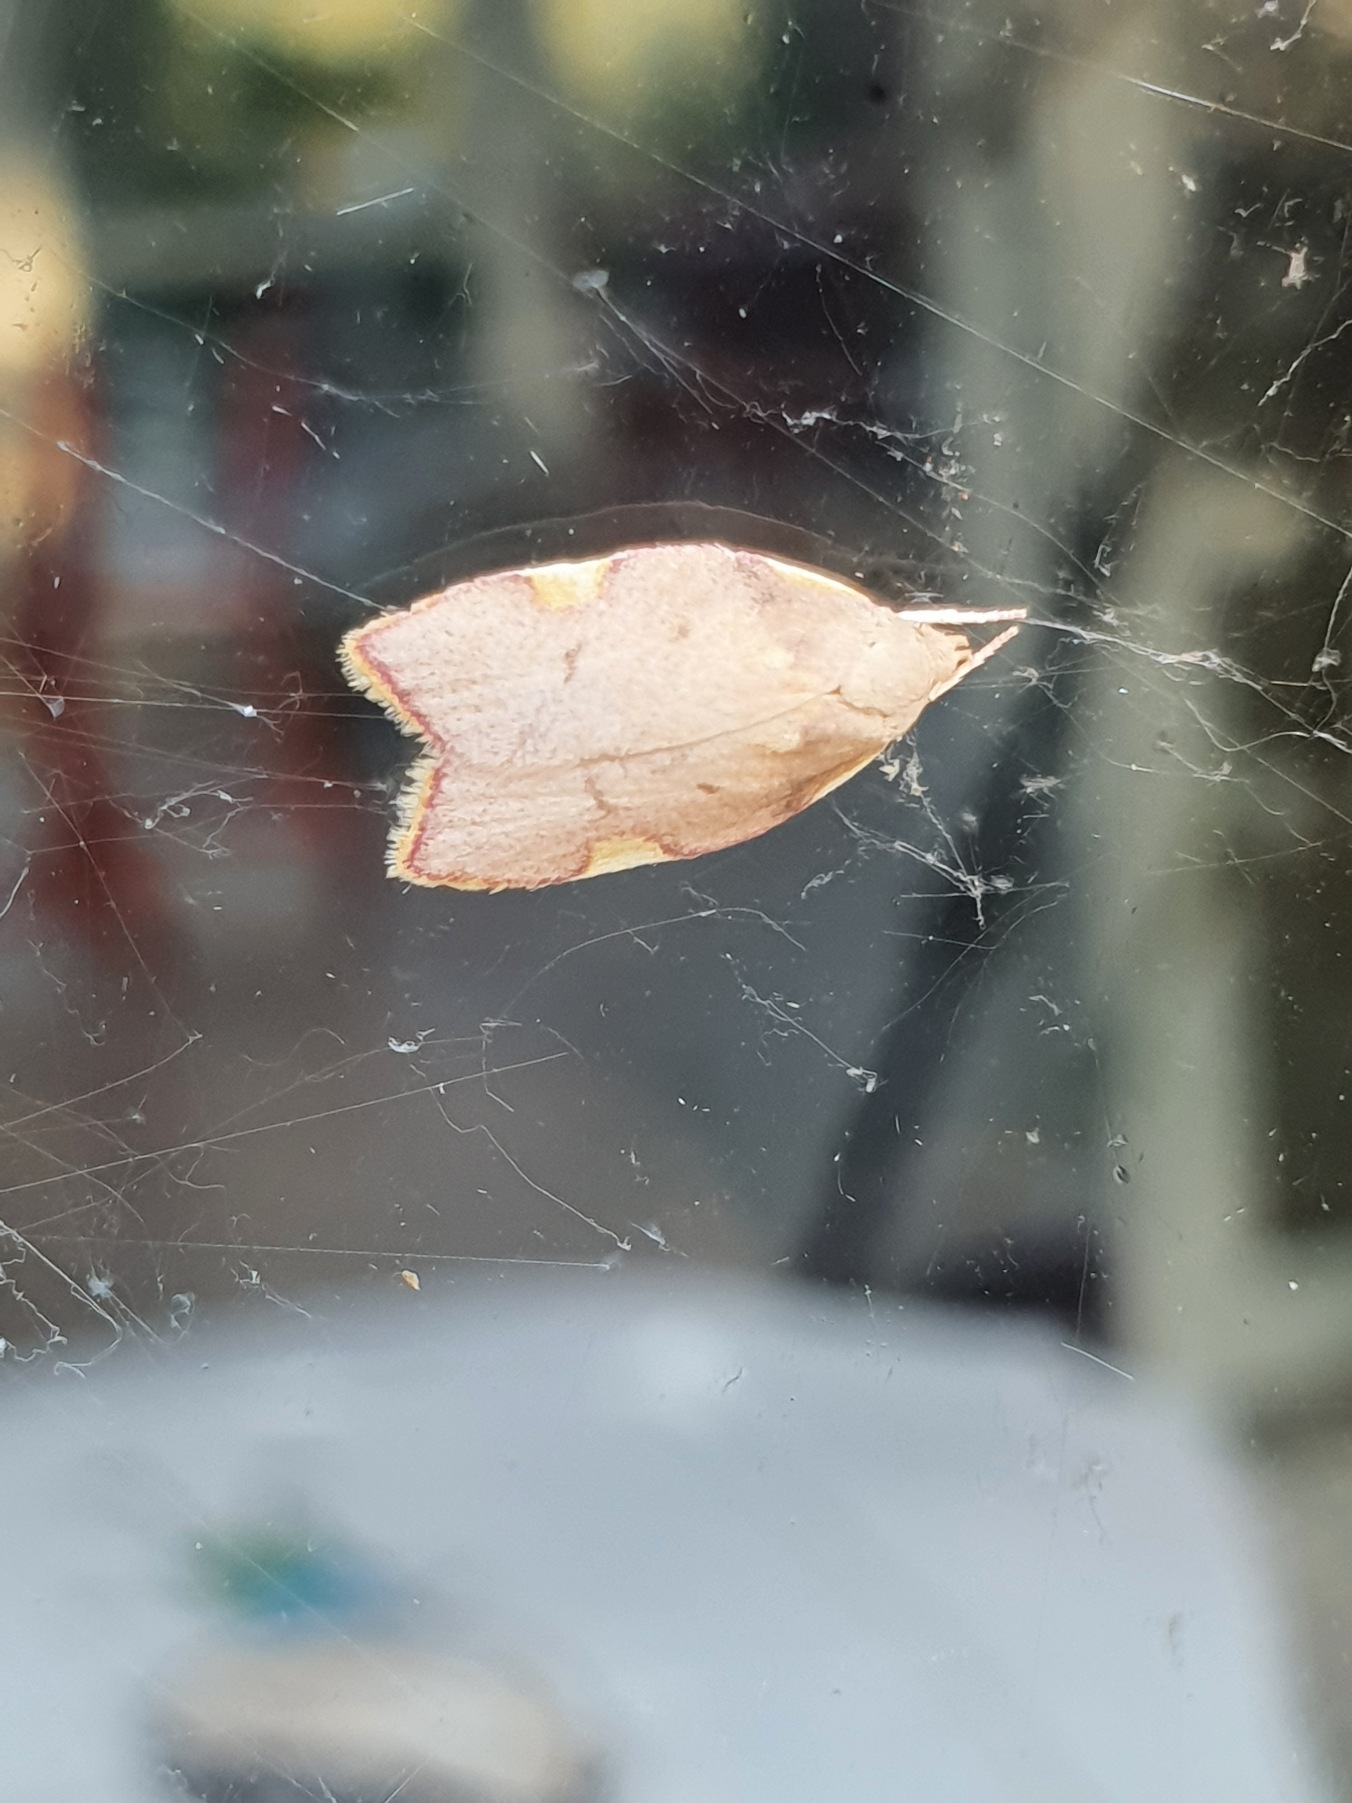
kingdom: Animalia
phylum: Arthropoda
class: Insecta
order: Lepidoptera
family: Peleopodidae
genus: Carcina
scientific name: Carcina quercana
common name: Egeprydvinge
